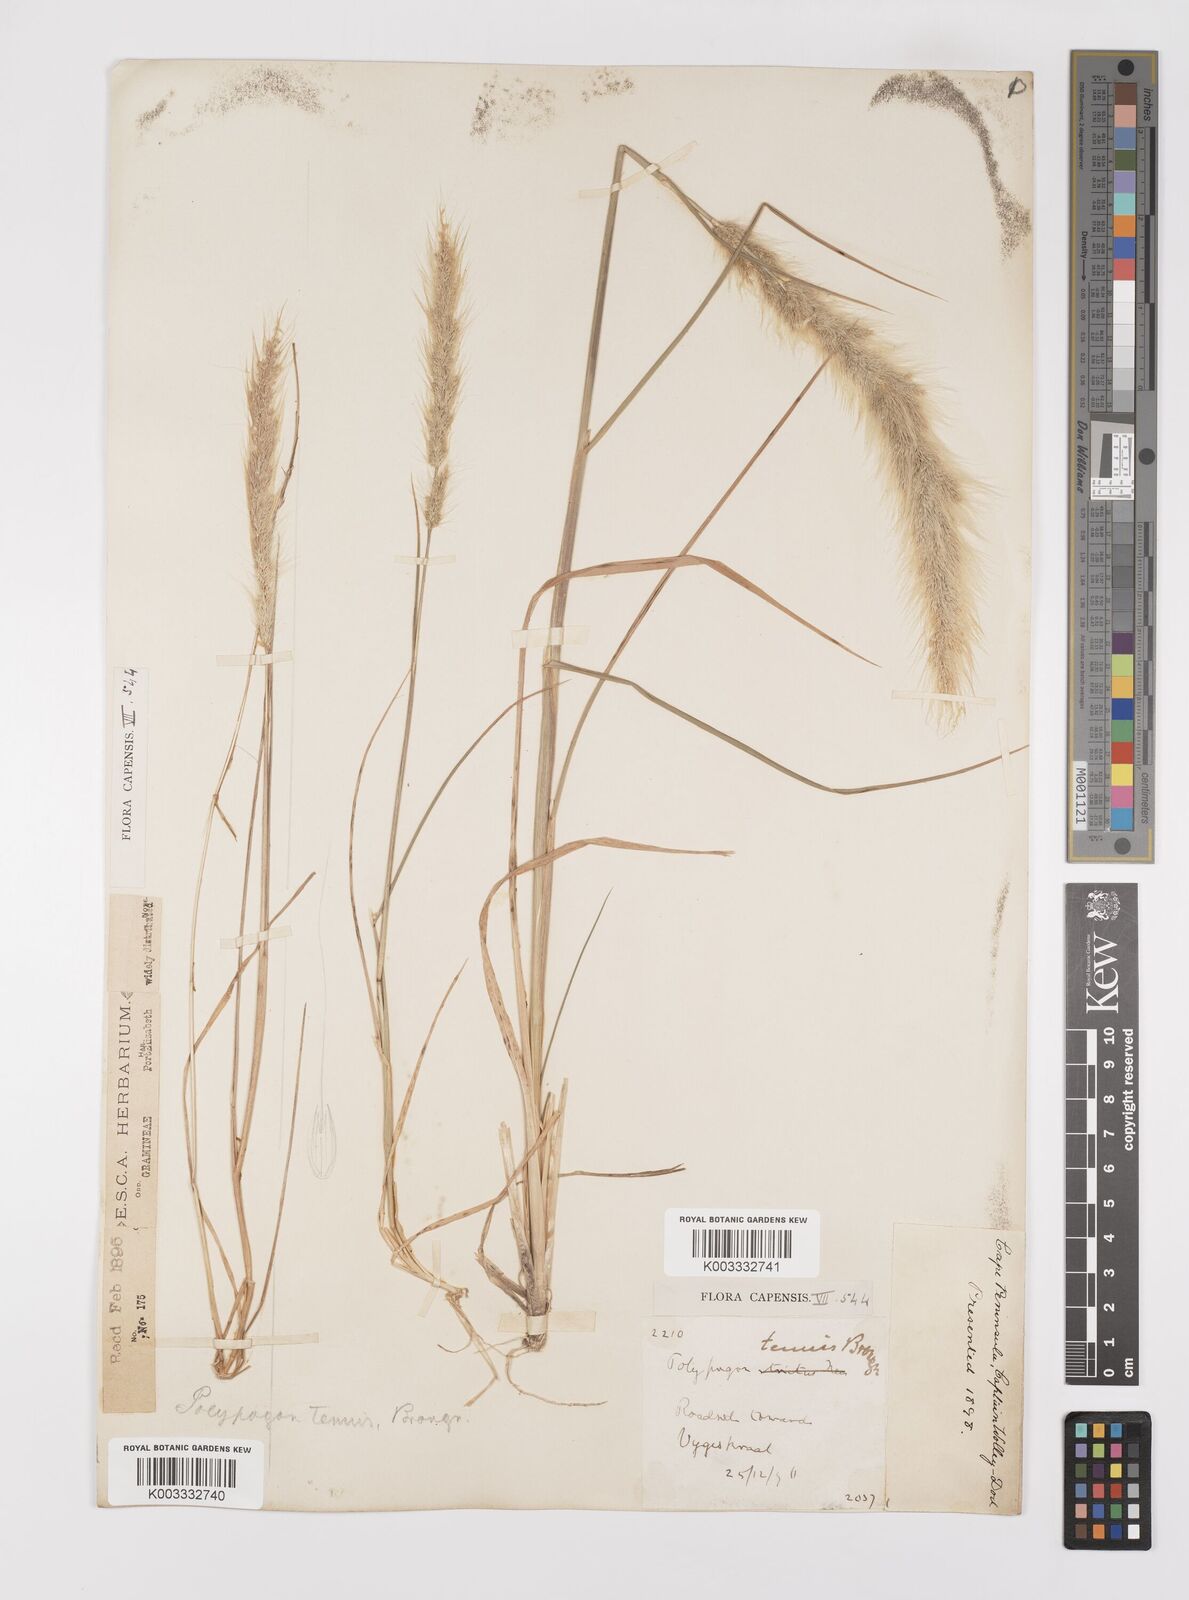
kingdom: Plantae
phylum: Tracheophyta
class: Liliopsida
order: Poales
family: Poaceae
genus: Polypogon
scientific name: Polypogon tenuis
